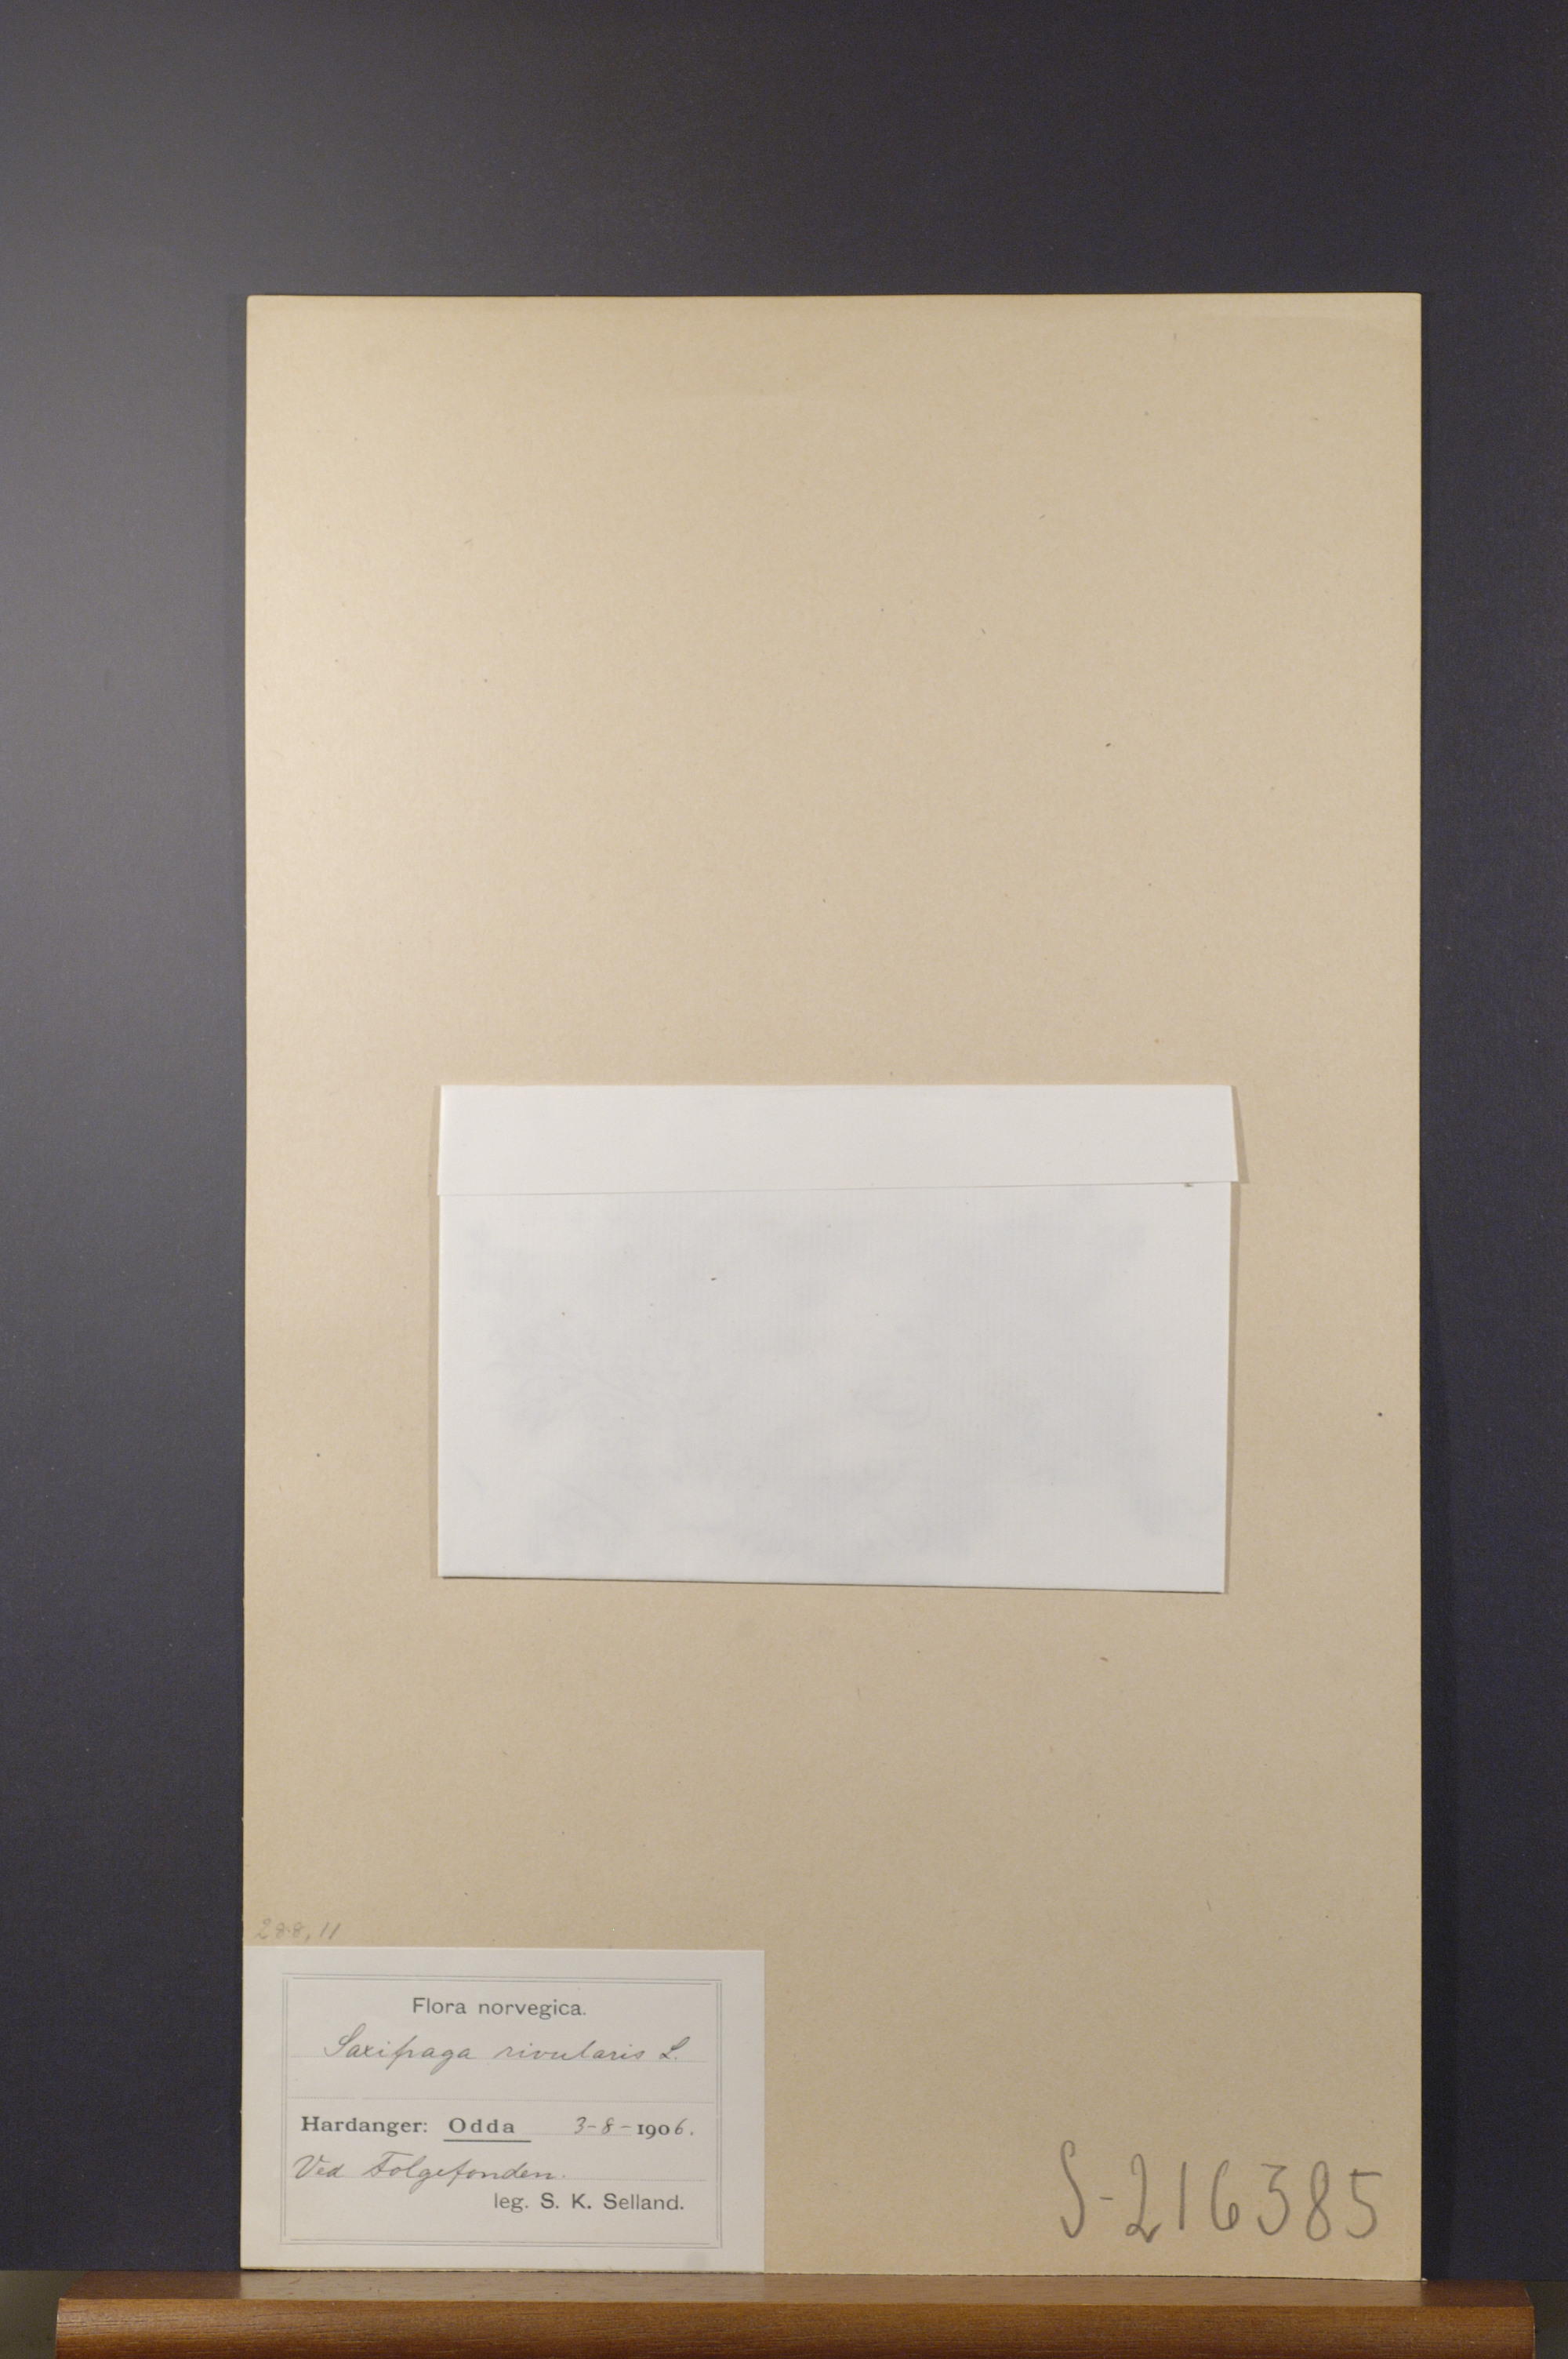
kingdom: Plantae
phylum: Tracheophyta
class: Magnoliopsida
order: Saxifragales
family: Saxifragaceae
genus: Saxifraga
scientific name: Saxifraga rivularis
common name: Highland saxifrage
